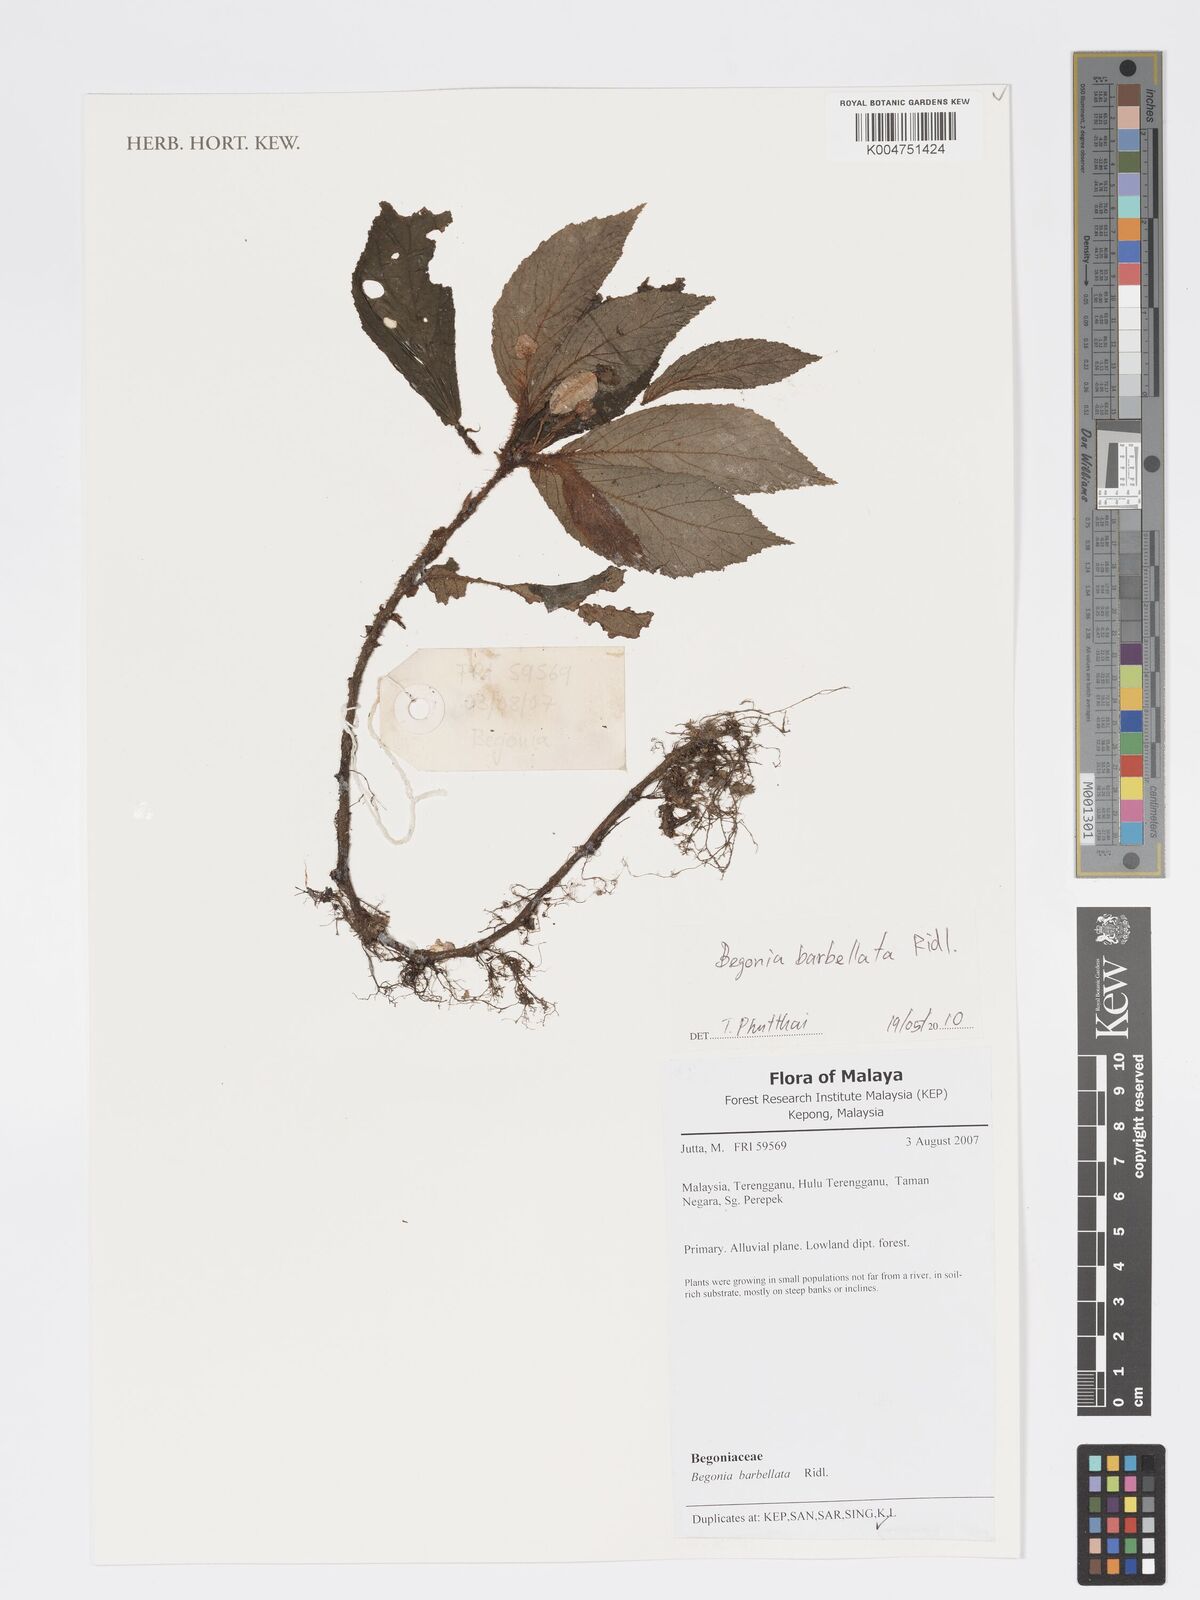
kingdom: Plantae
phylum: Tracheophyta
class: Magnoliopsida
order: Cucurbitales
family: Begoniaceae
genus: Begonia
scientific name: Begonia barbellata
